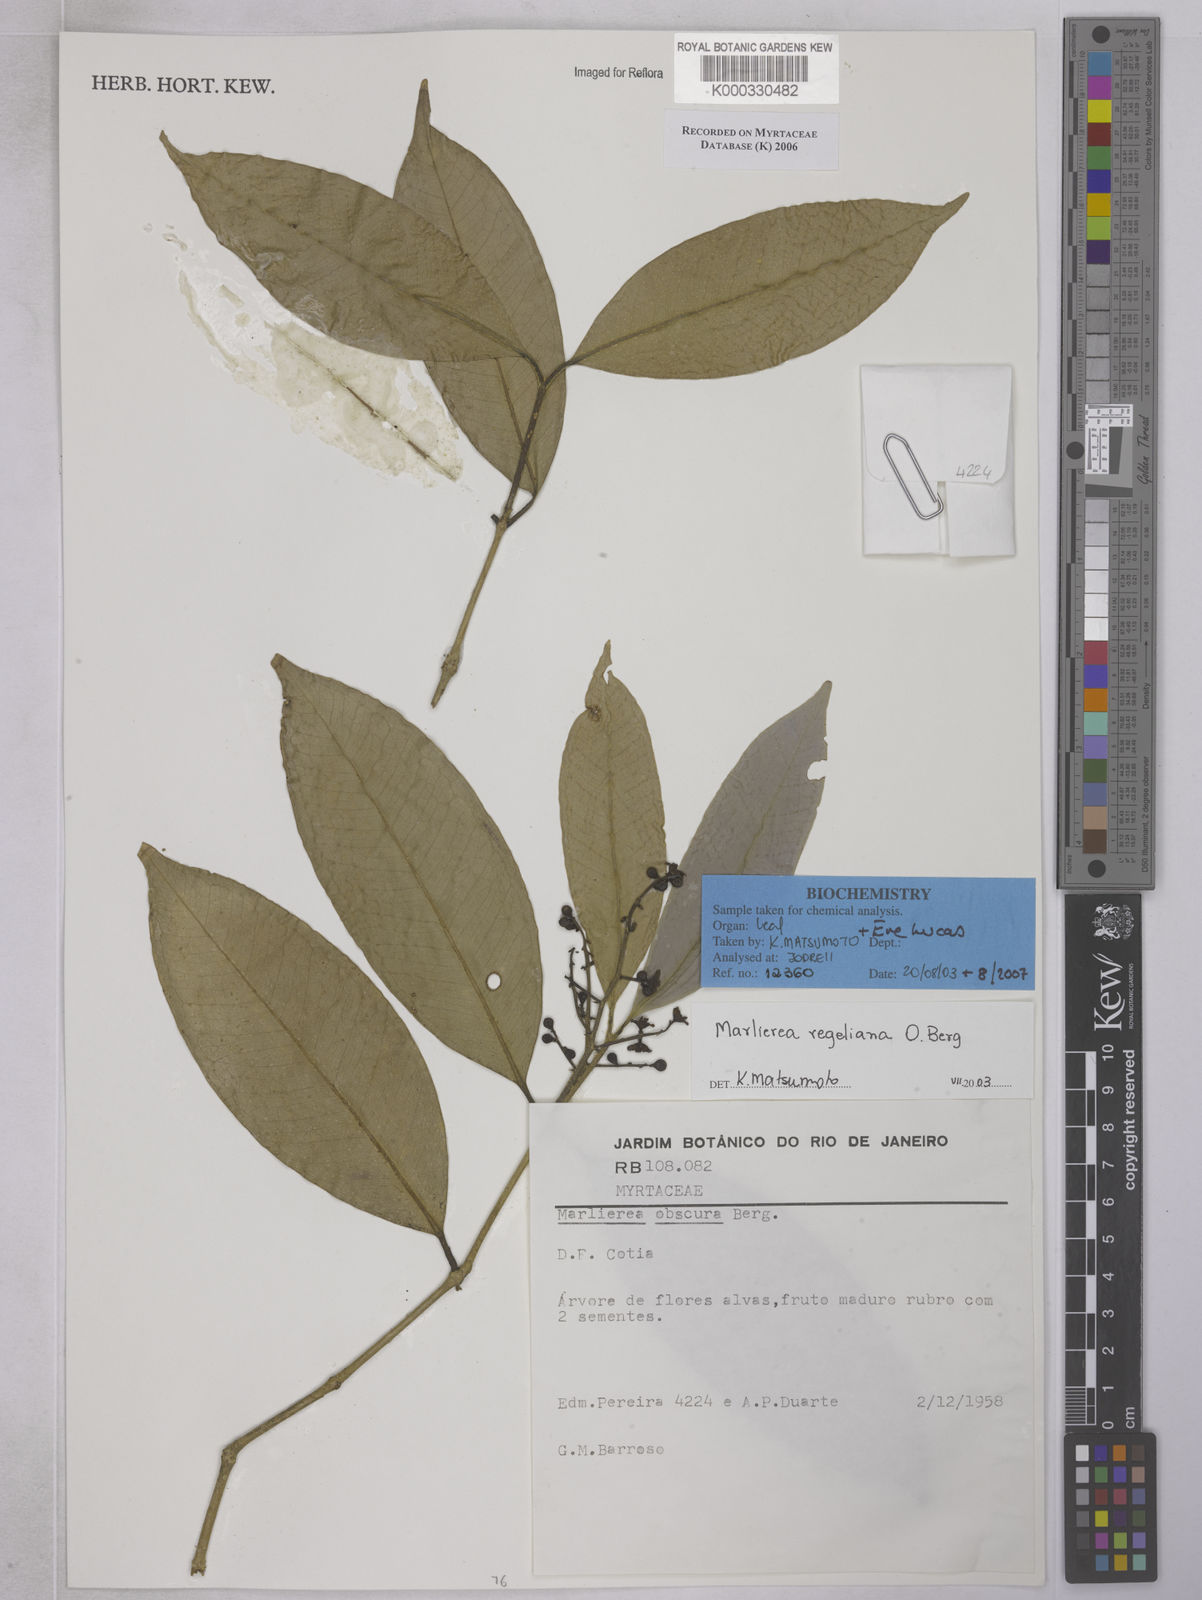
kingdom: Plantae
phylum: Tracheophyta
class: Magnoliopsida
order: Myrtales
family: Myrtaceae
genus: Myrcia
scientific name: Myrcia neoregeliana
